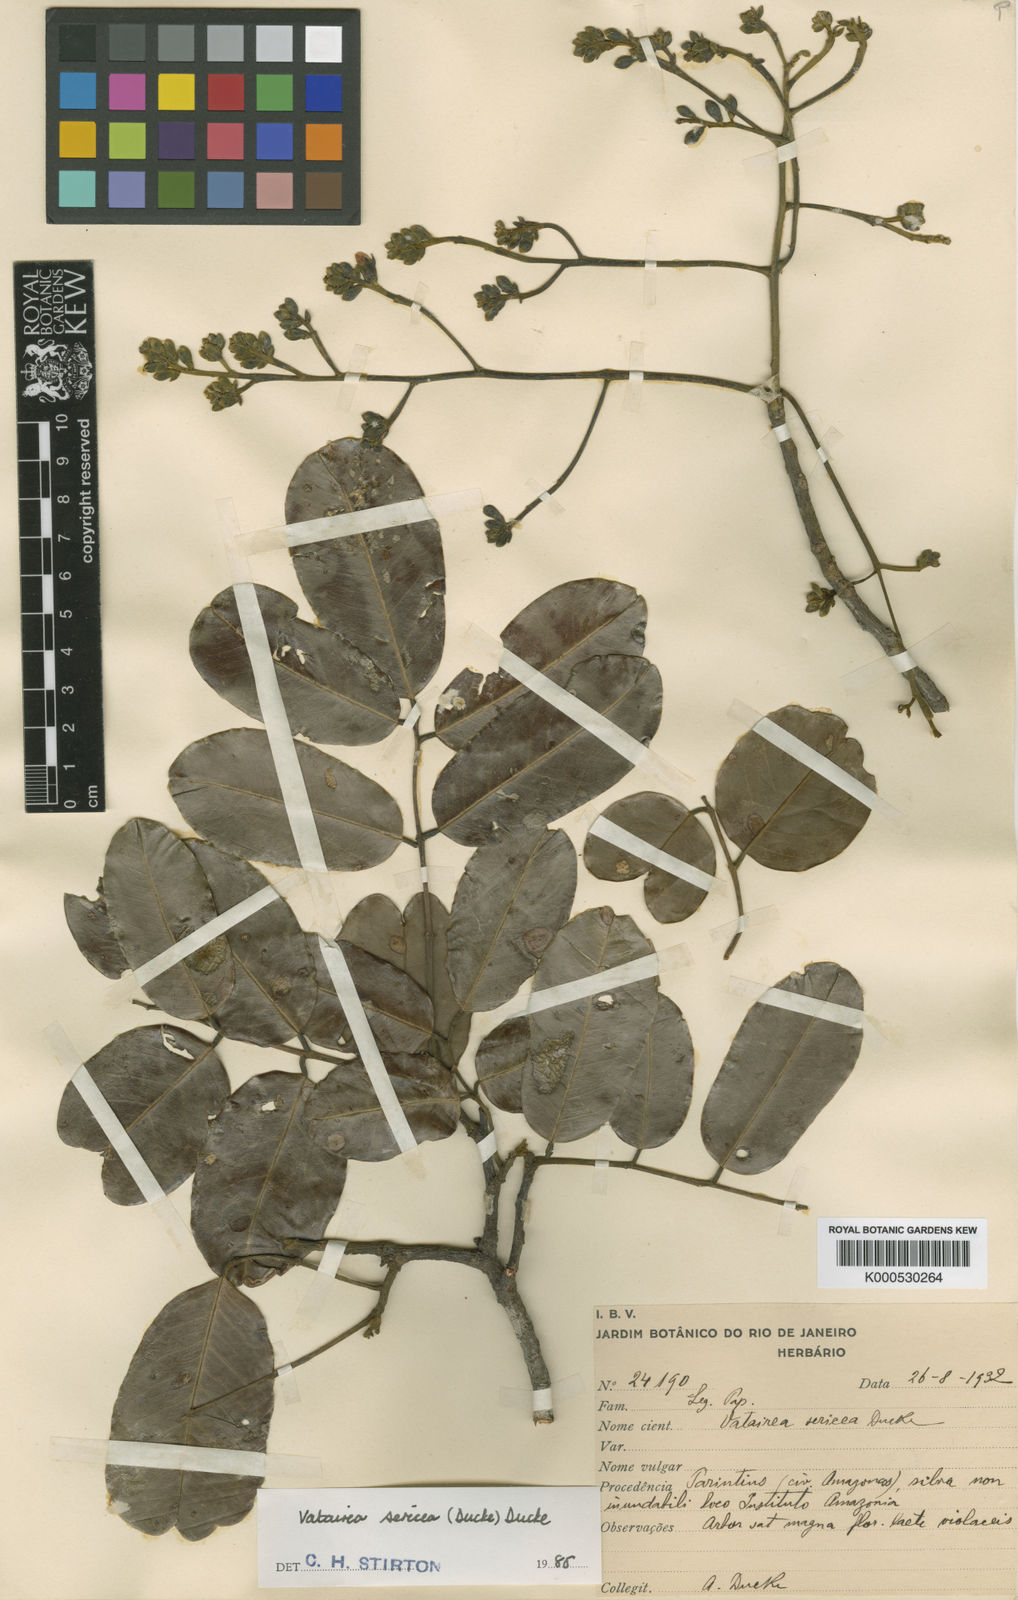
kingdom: Plantae
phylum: Tracheophyta
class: Magnoliopsida
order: Fabales
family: Fabaceae
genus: Vatairea
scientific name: Vatairea sericea
